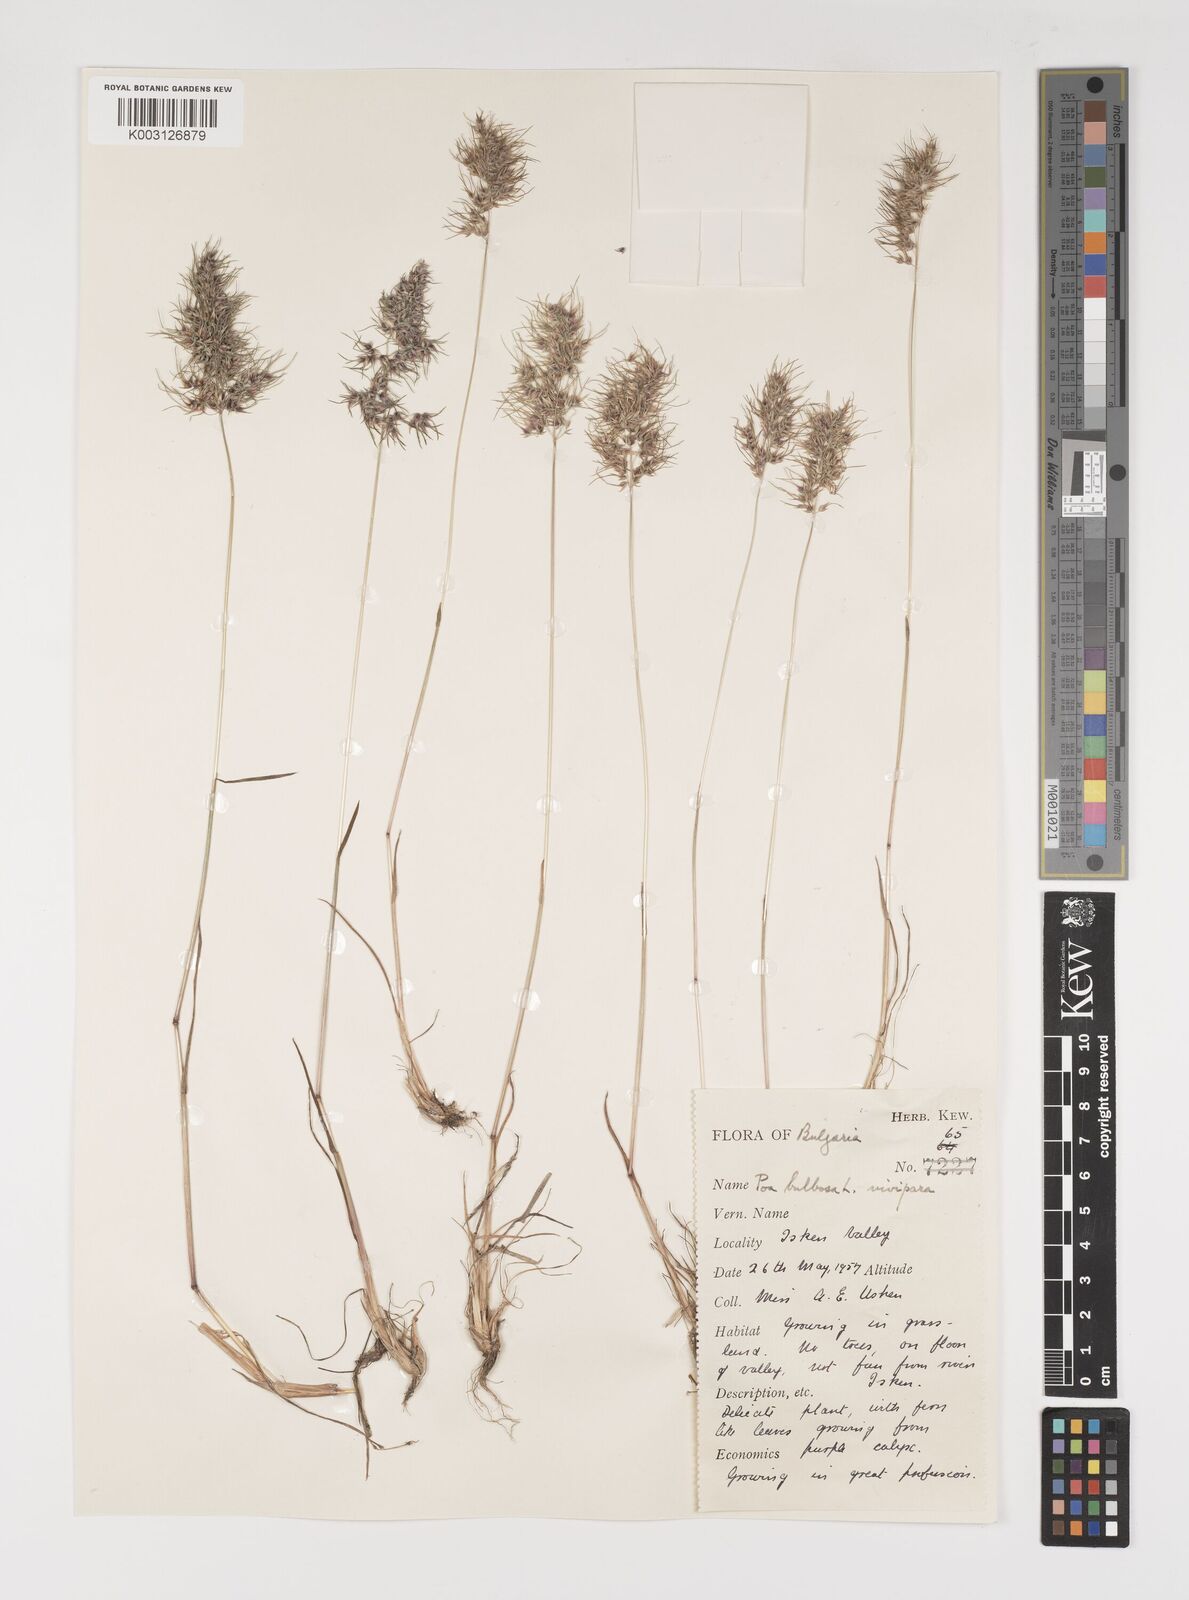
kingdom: Plantae
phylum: Tracheophyta
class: Liliopsida
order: Poales
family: Poaceae
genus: Poa
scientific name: Poa bulbosa
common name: Bulbous bluegrass
